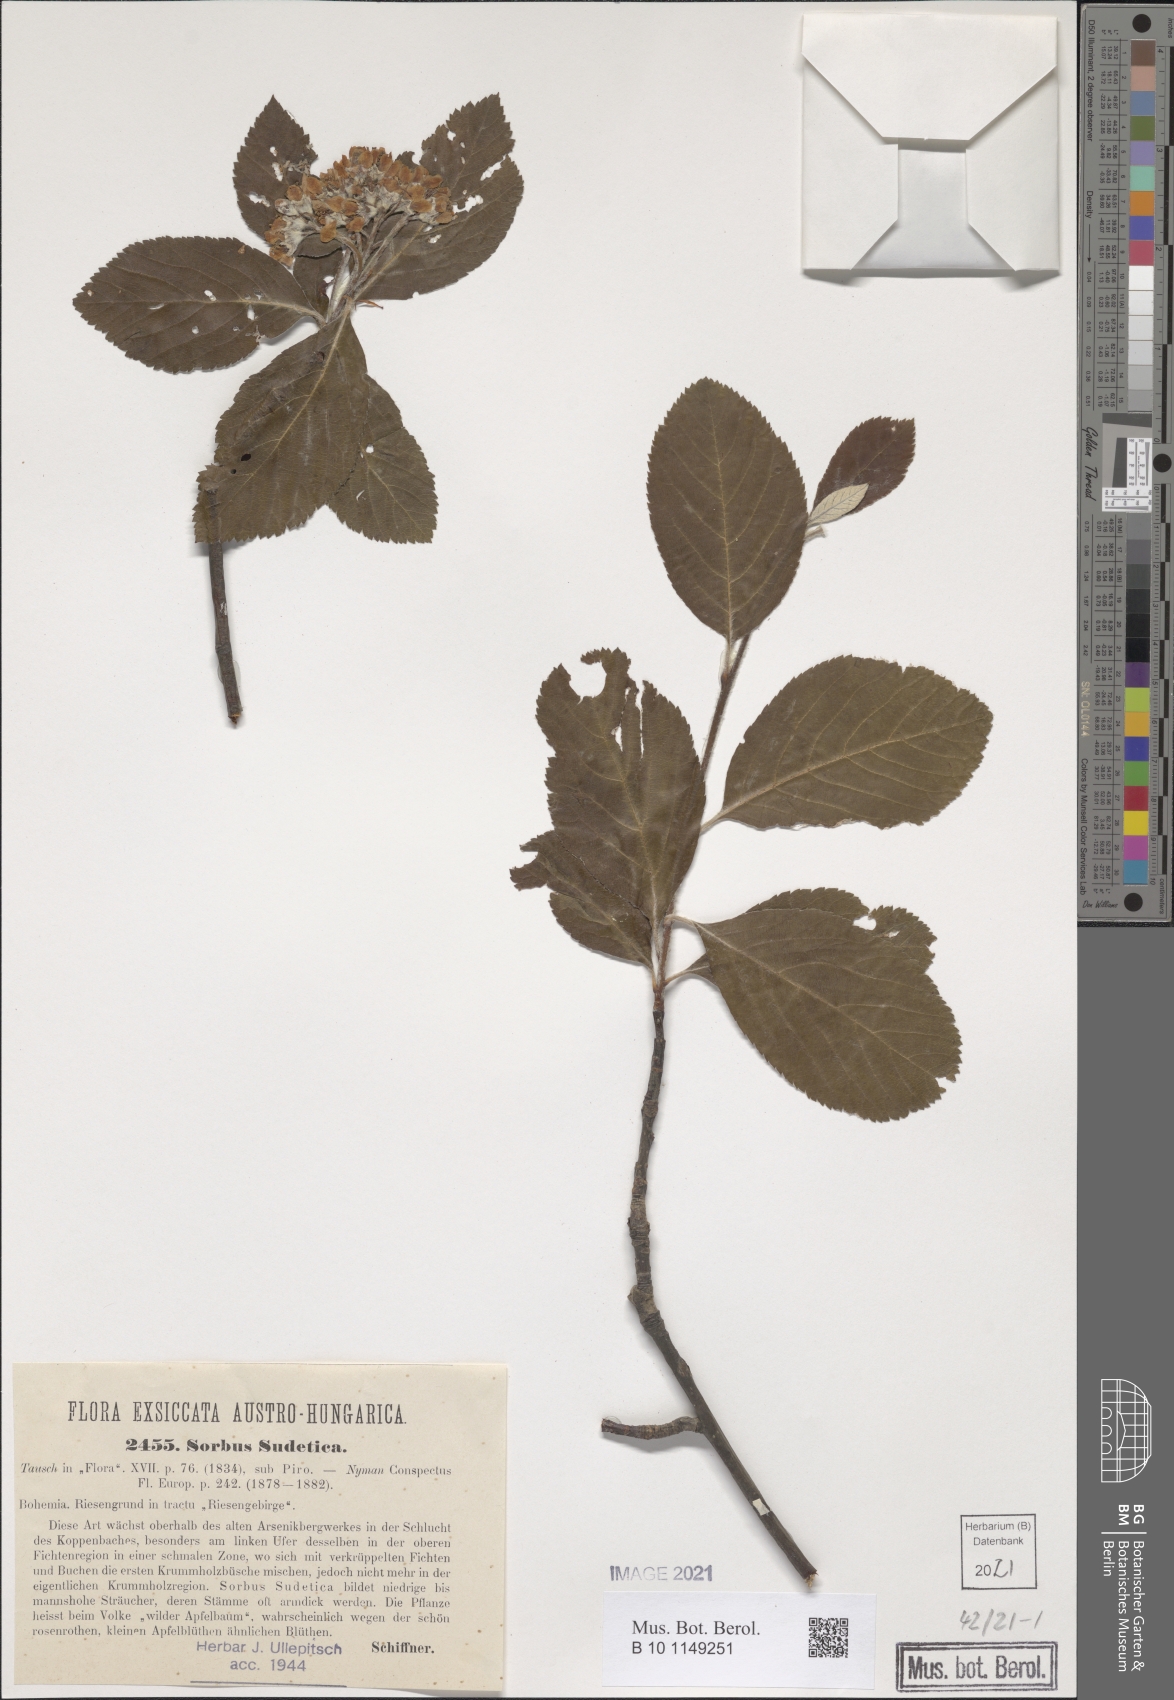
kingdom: Plantae
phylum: Tracheophyta
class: Magnoliopsida
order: Rosales
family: Rosaceae
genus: Sorbus
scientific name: Sorbus sudetica
